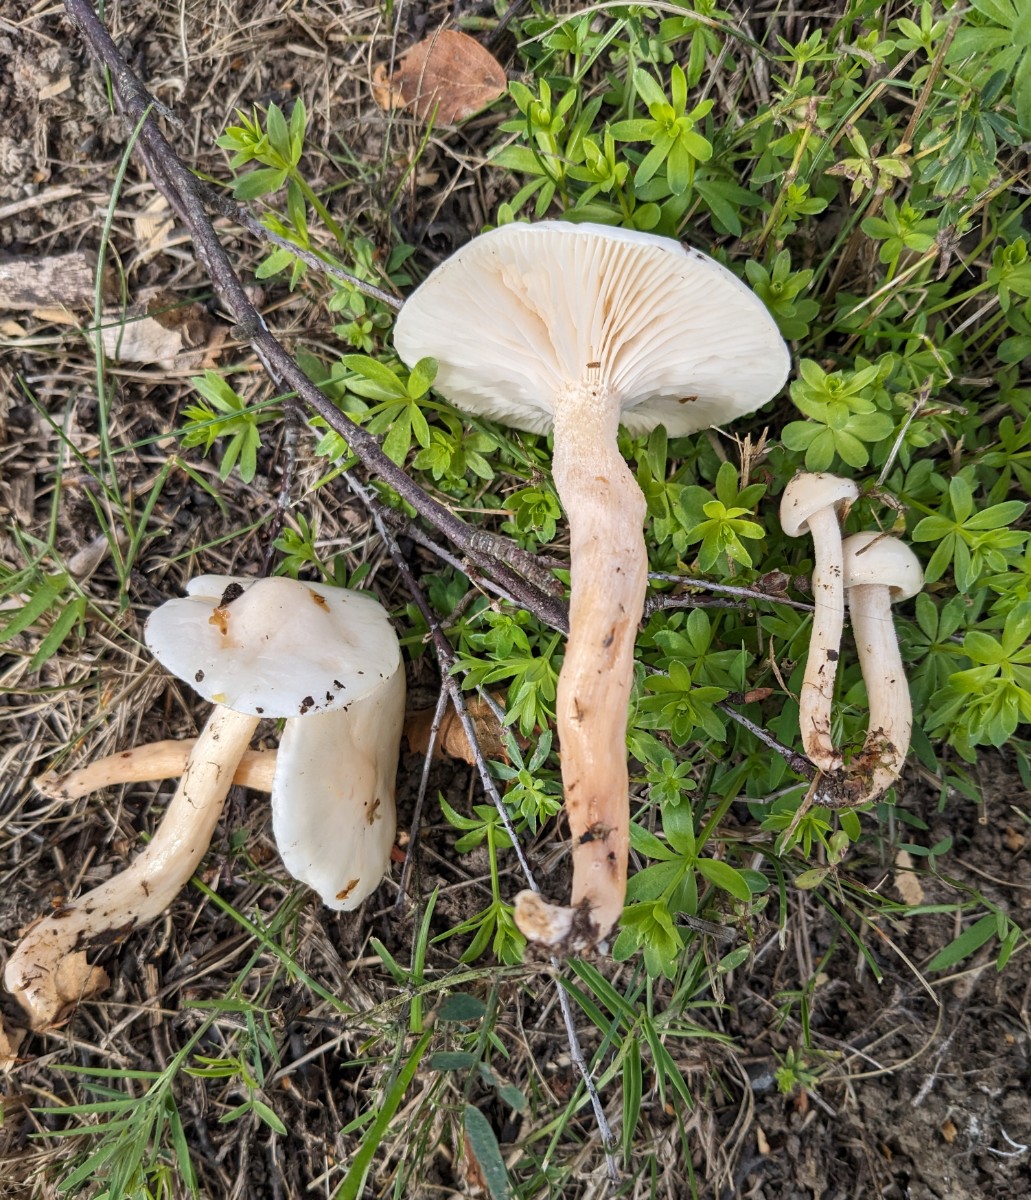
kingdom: Fungi
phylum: Basidiomycota
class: Agaricomycetes
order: Agaricales
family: Hygrophoraceae
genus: Hygrophorus
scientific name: Hygrophorus hedrychii
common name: Sweet woodwax
